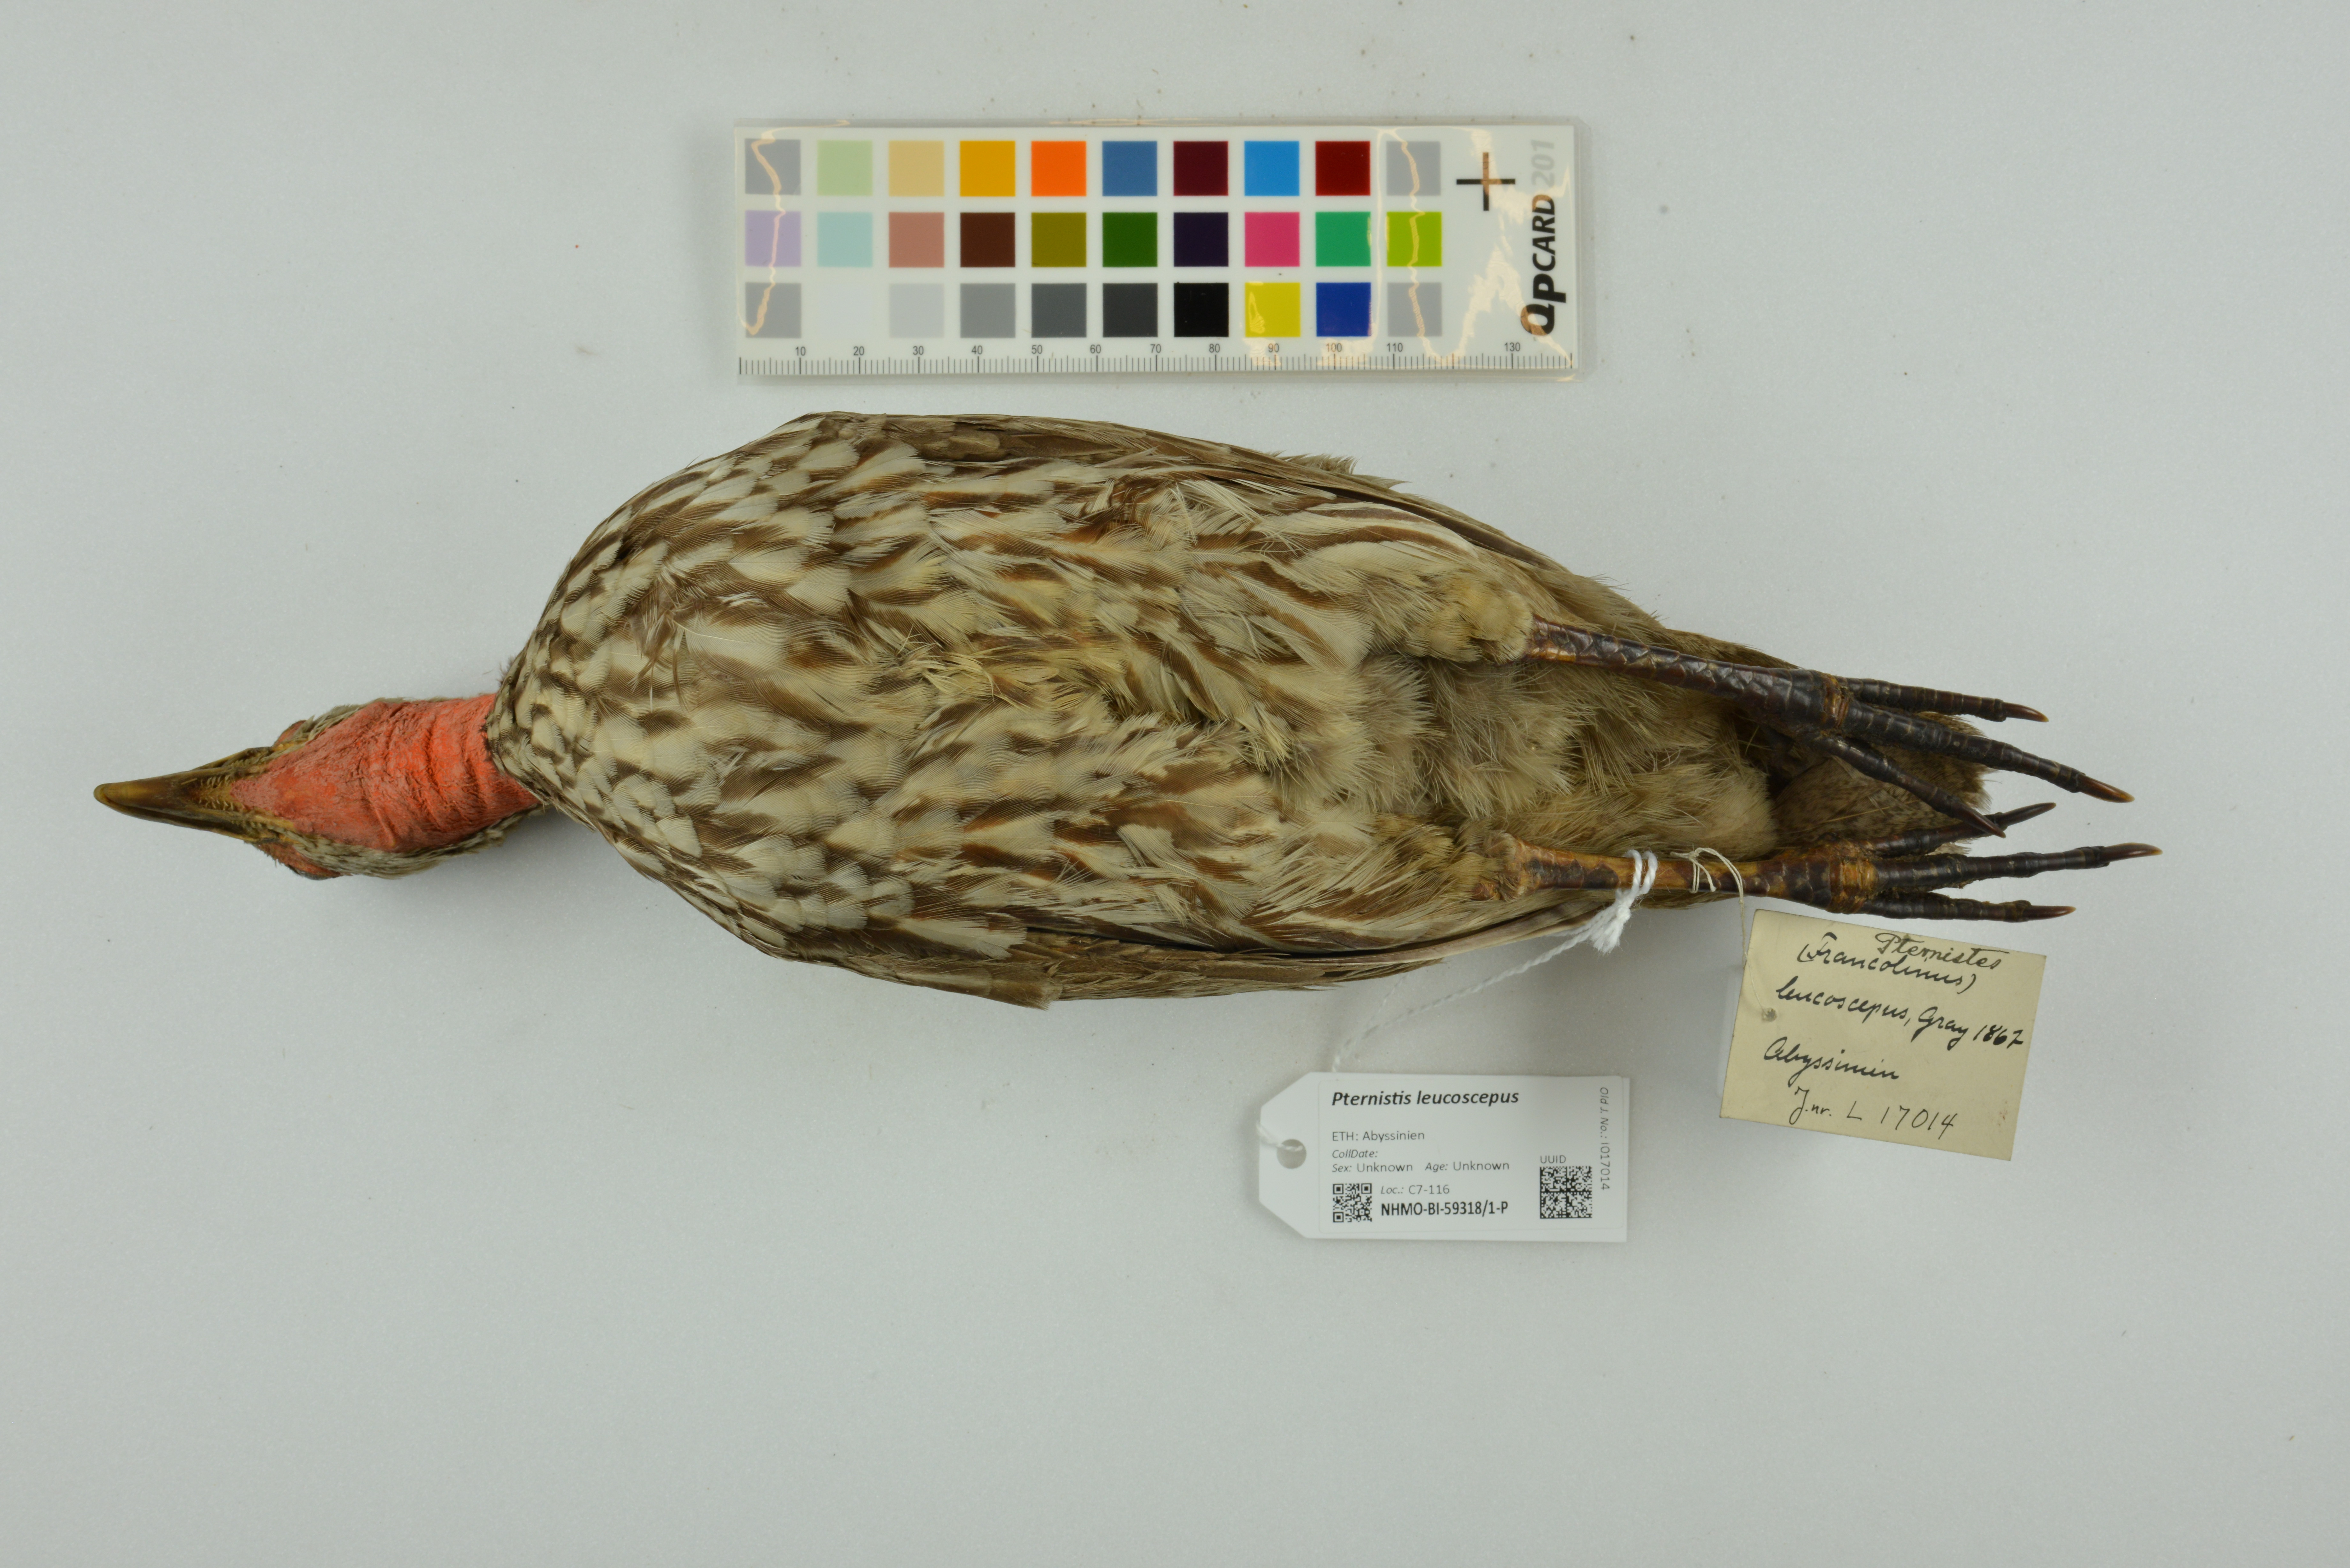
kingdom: Animalia
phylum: Chordata
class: Aves
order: Galliformes
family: Phasianidae
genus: Pternistis
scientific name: Pternistis leucoscepus
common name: Yellow-necked spurfowl
